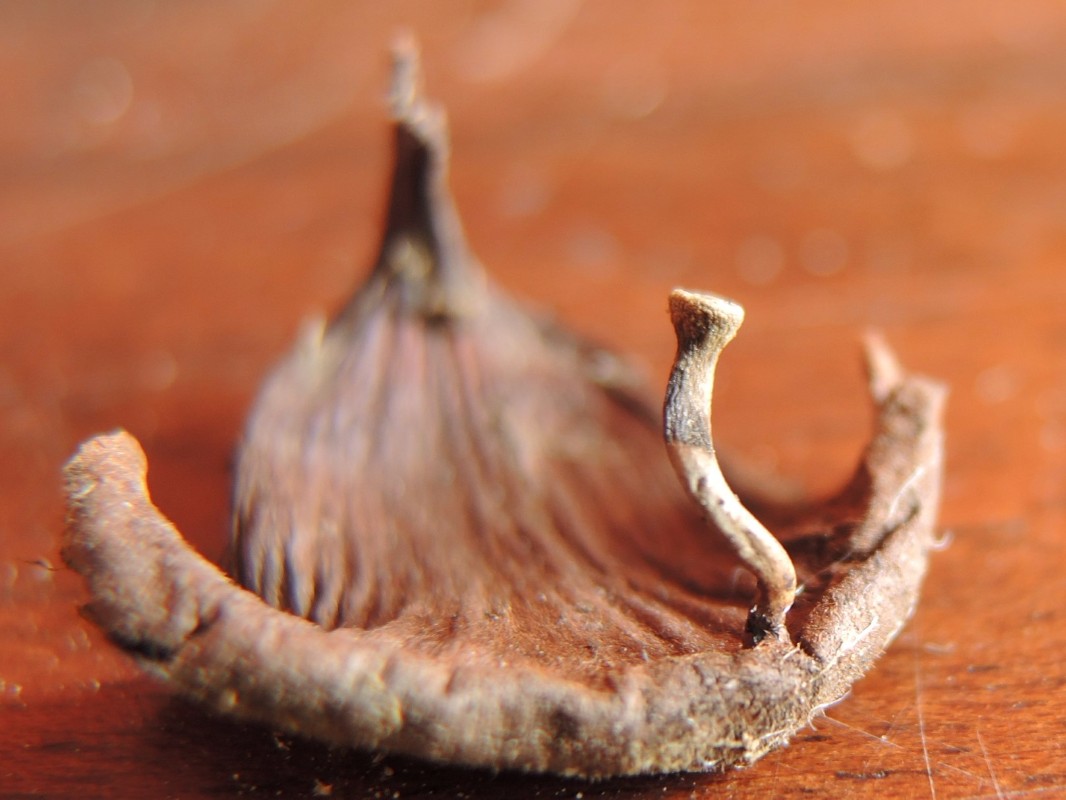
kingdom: Fungi
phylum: Ascomycota
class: Leotiomycetes
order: Helotiales
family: Sclerotiniaceae
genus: Ciboria
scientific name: Ciboria rufofusca
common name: kogleskæl-knoldskive
